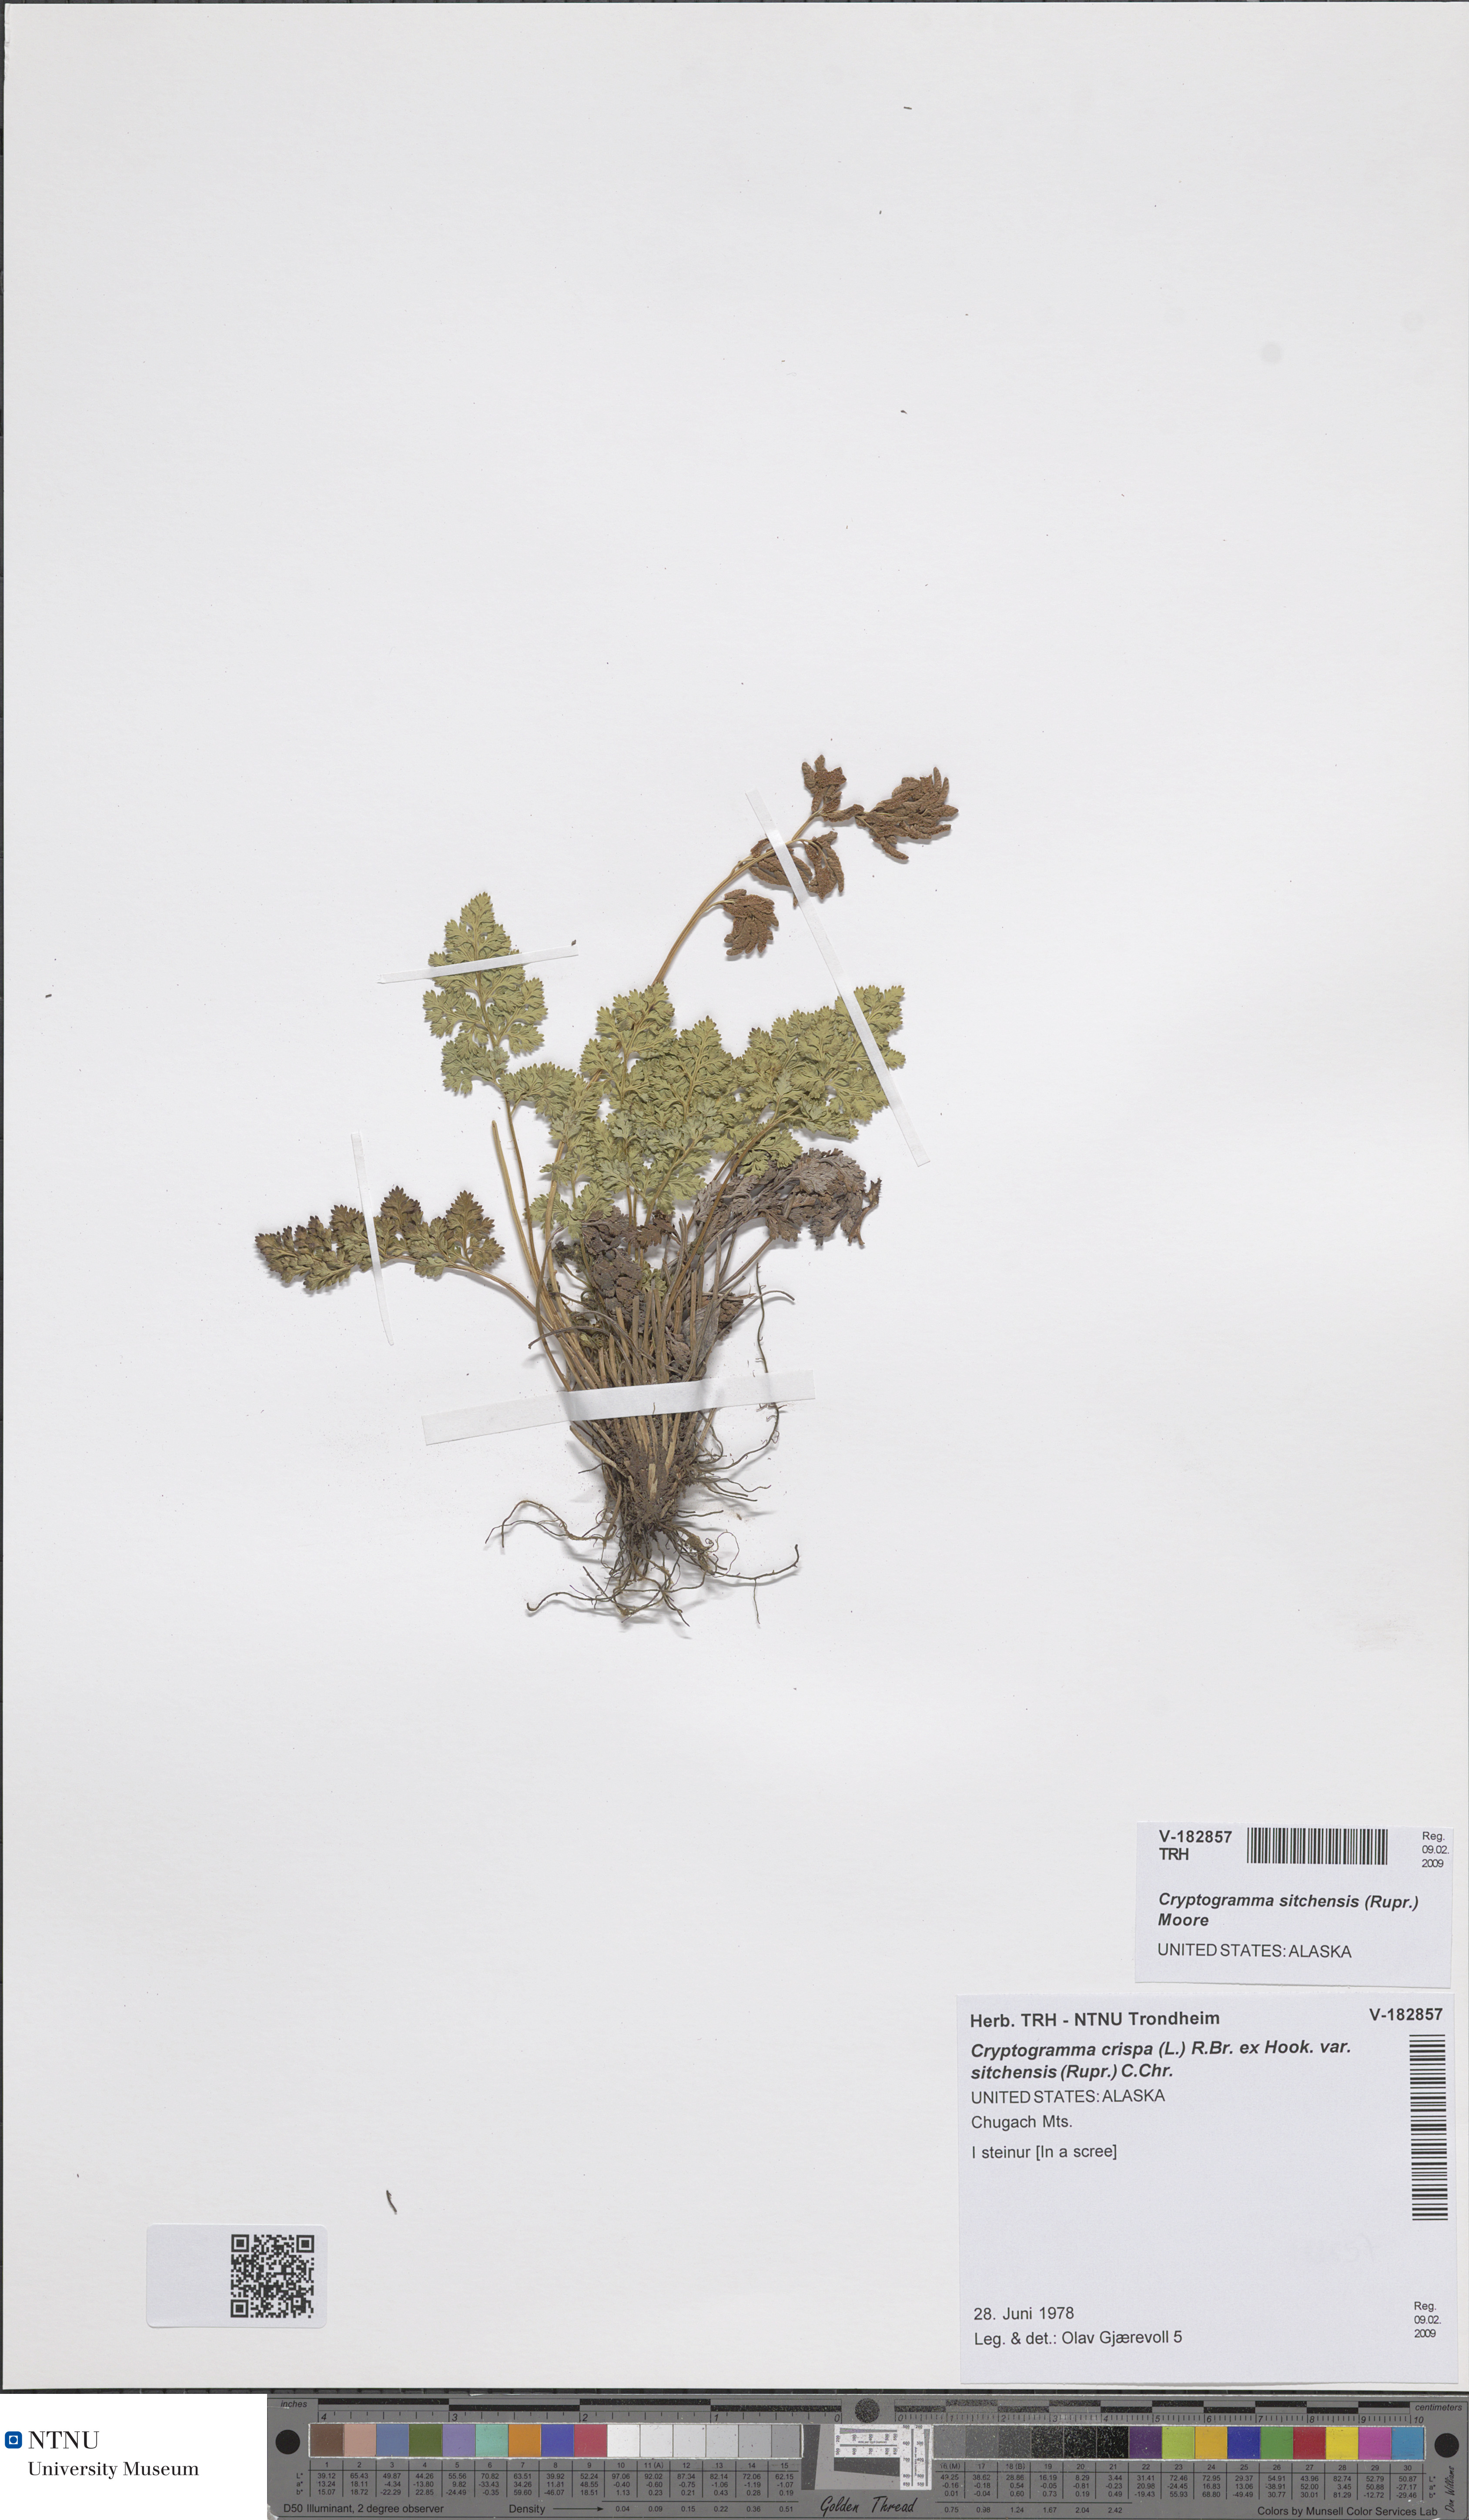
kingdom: Plantae
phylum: Tracheophyta
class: Polypodiopsida
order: Polypodiales
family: Pteridaceae
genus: Cryptogramma
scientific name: Cryptogramma sitchensis
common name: Alaska parsley fern
